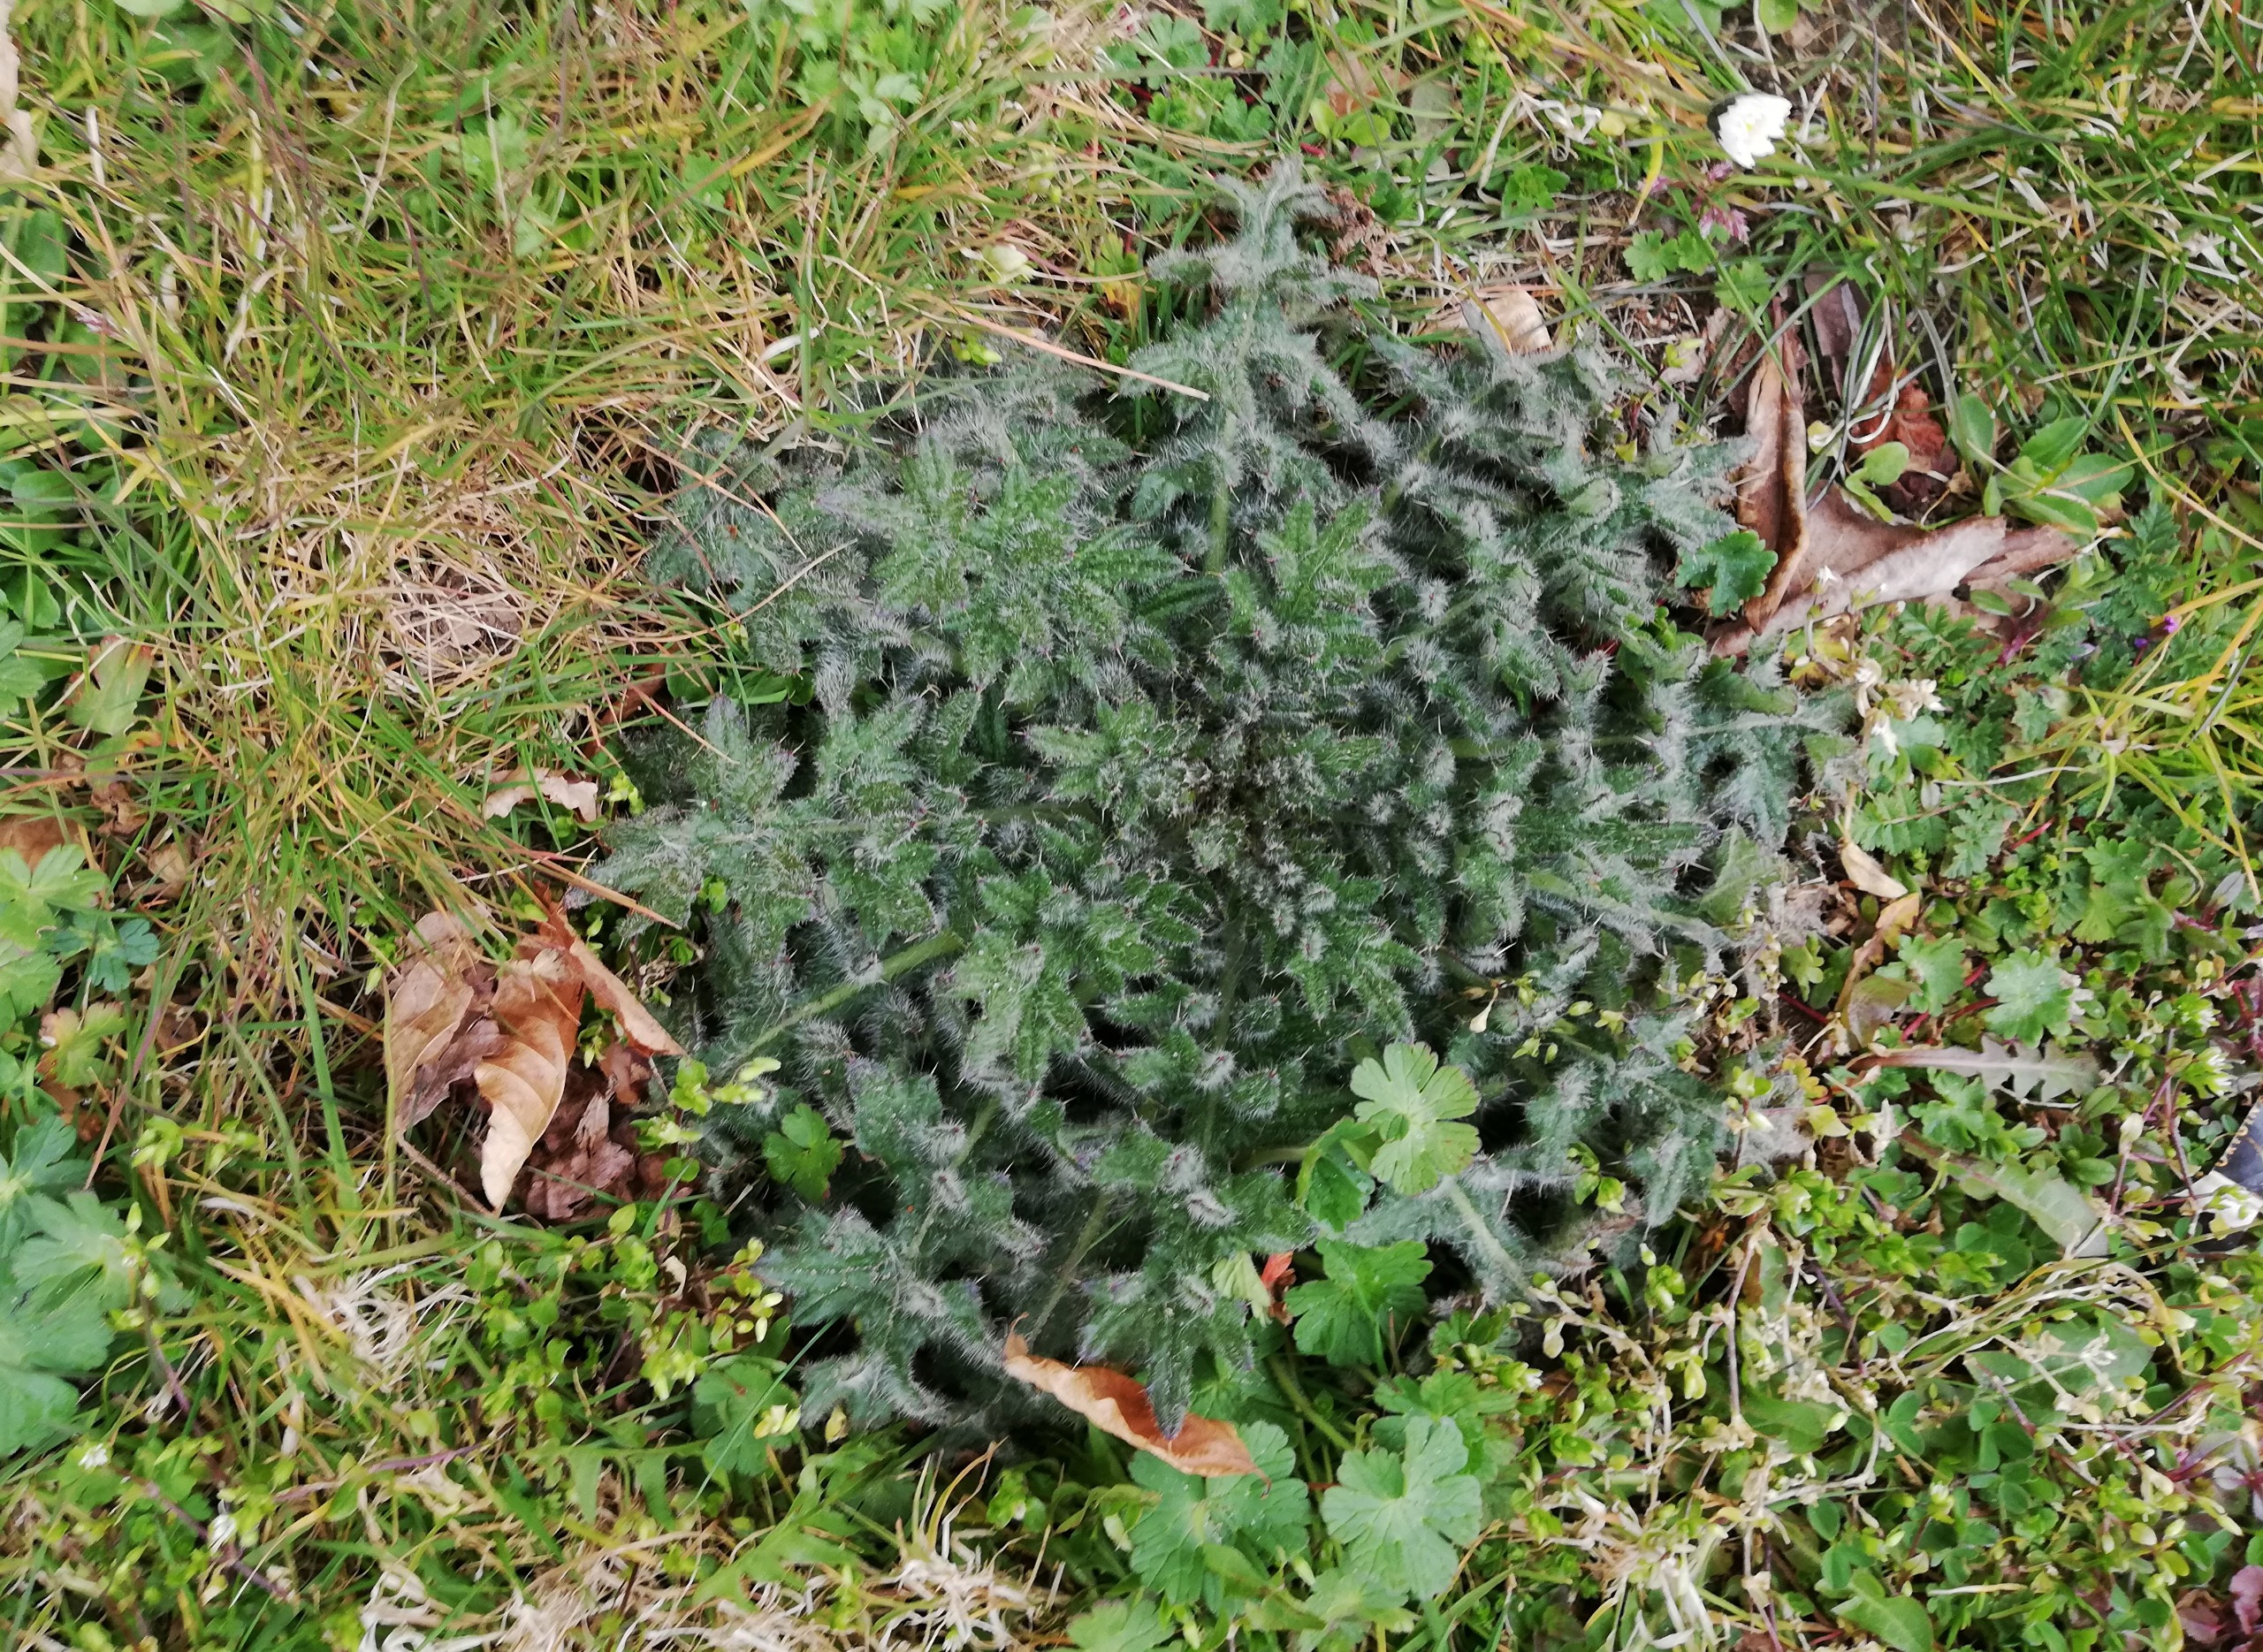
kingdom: Plantae
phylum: Tracheophyta
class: Magnoliopsida
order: Asterales
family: Asteraceae
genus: Cirsium
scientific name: Cirsium vulgare
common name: Horse-tidsel
